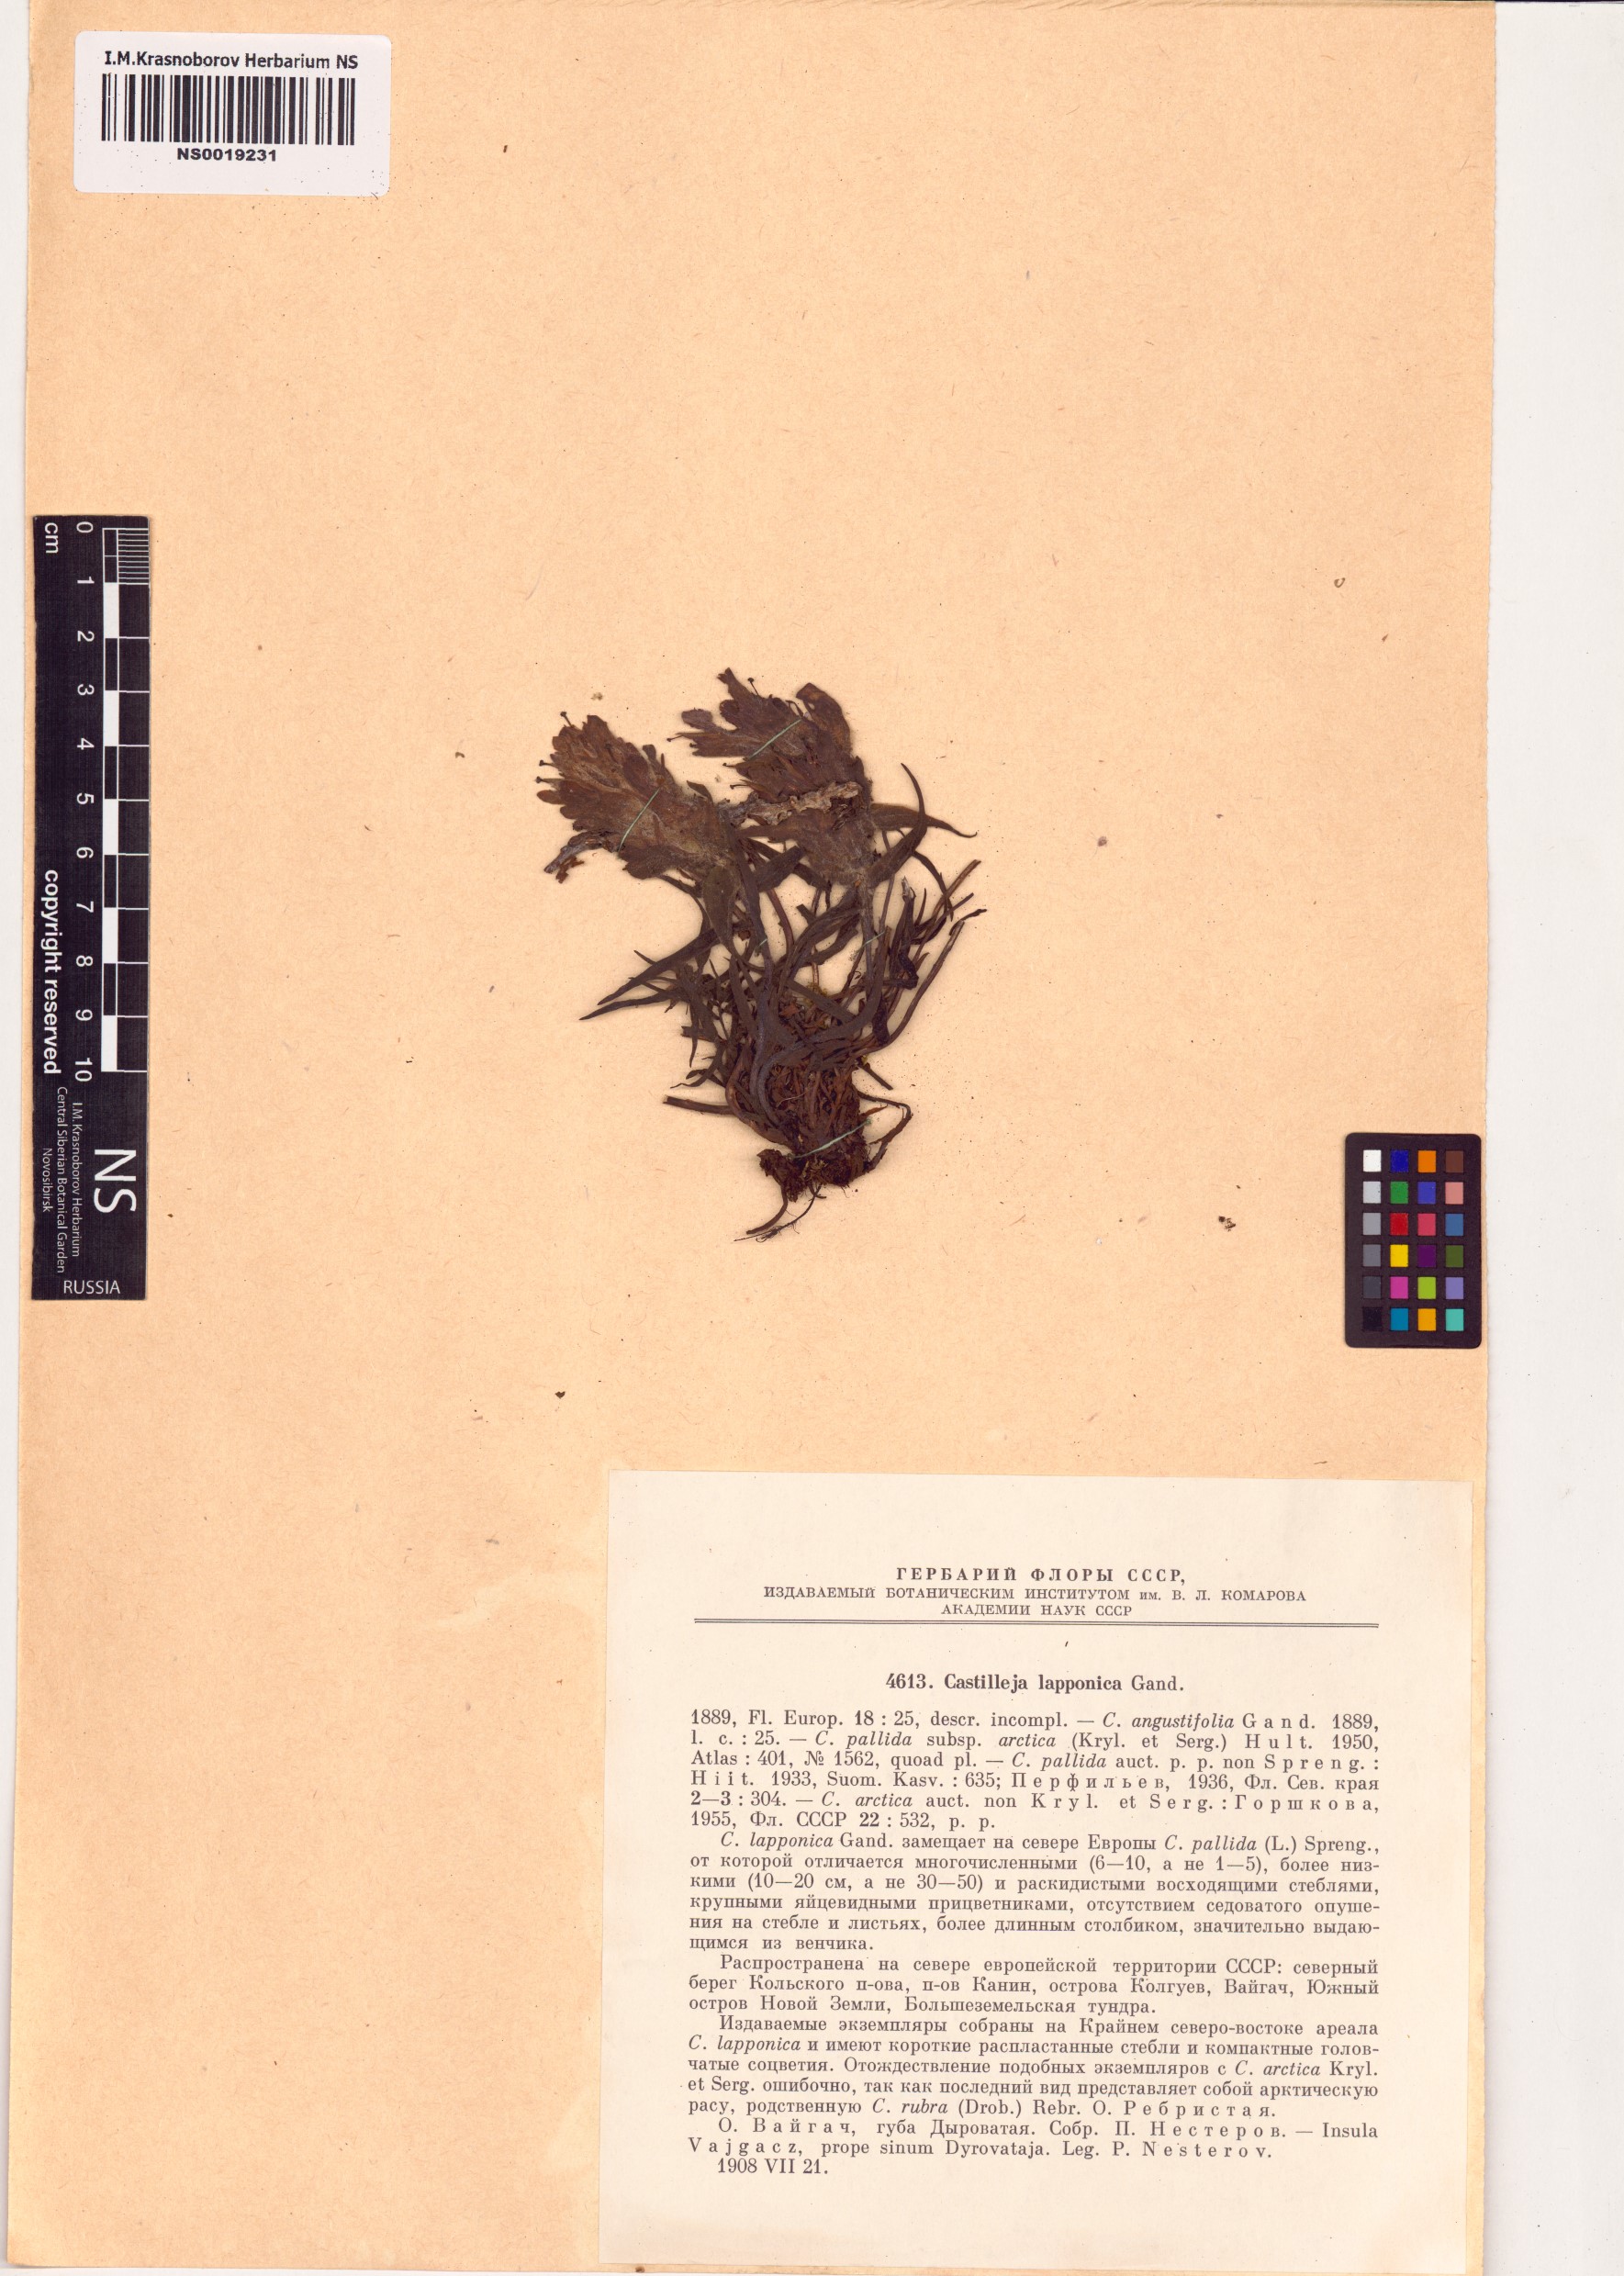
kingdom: Plantae
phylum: Tracheophyta
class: Magnoliopsida
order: Lamiales
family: Orobanchaceae
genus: Castilleja
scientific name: Castilleja lapponica
